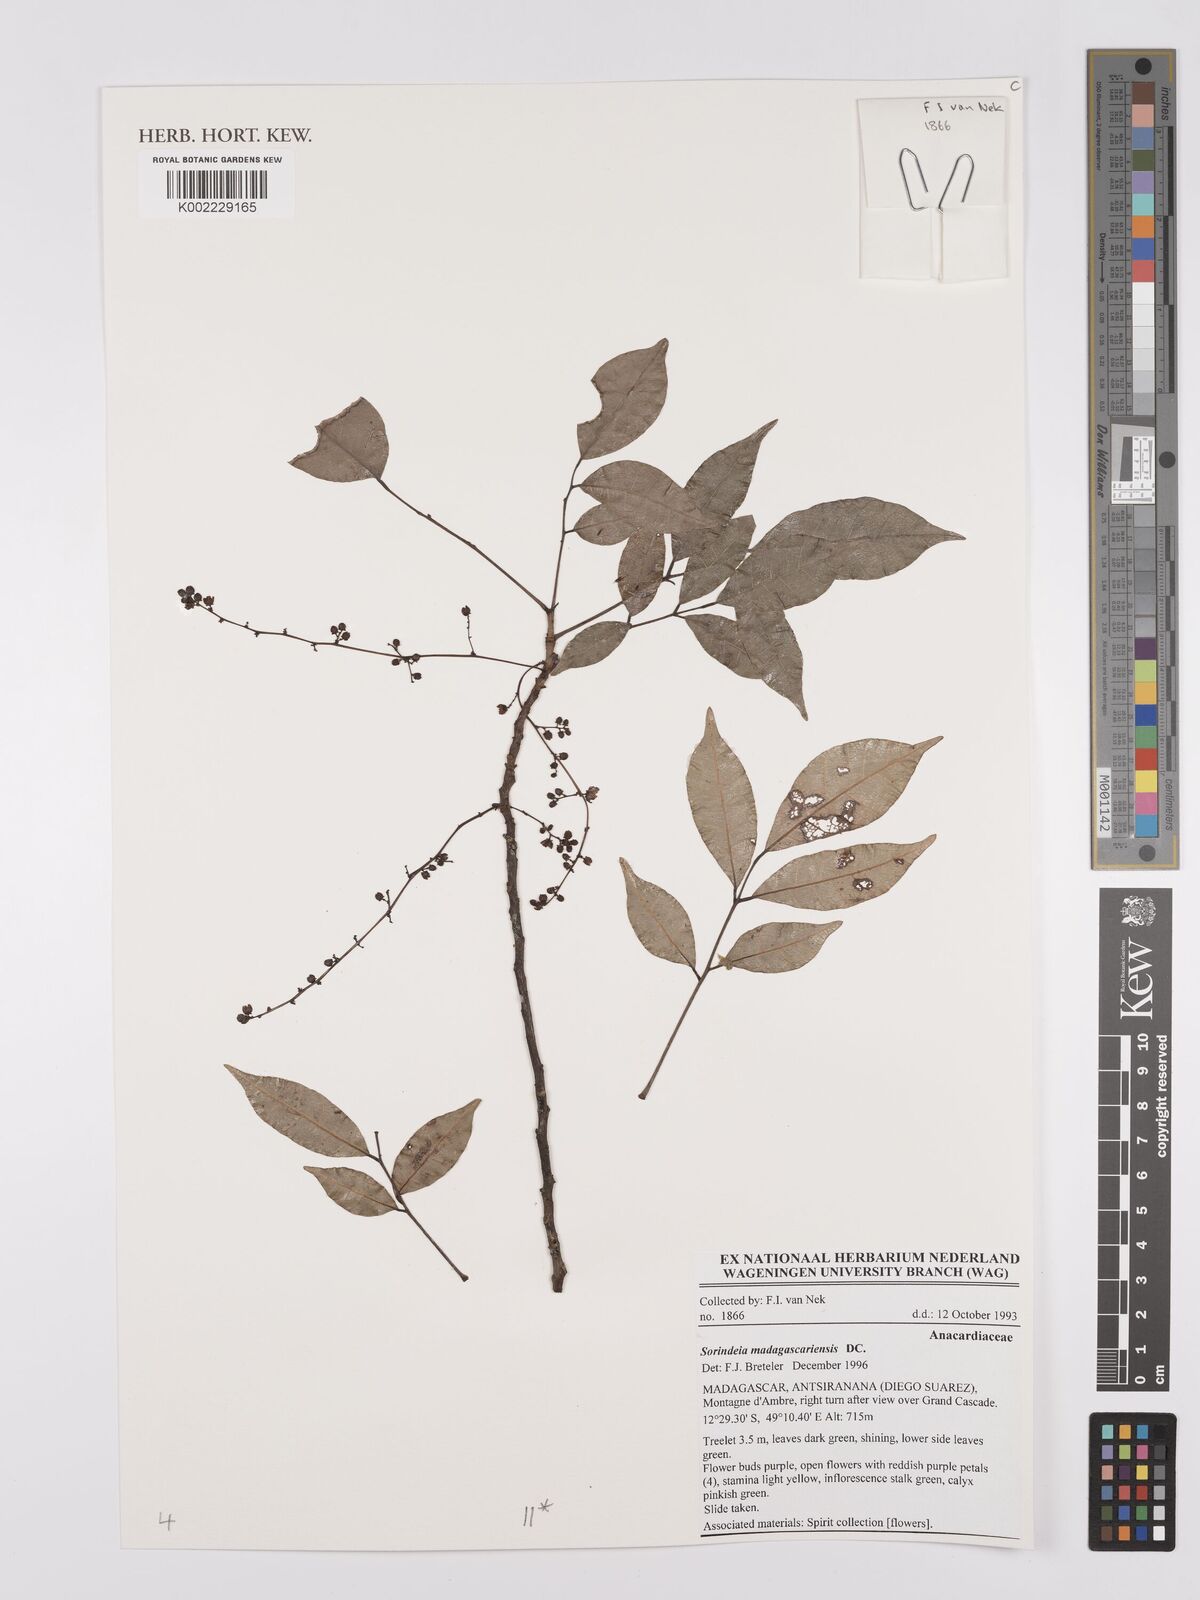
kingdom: Plantae
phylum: Tracheophyta
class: Magnoliopsida
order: Sapindales
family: Anacardiaceae
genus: Sorindeia
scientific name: Sorindeia madagascariensis
